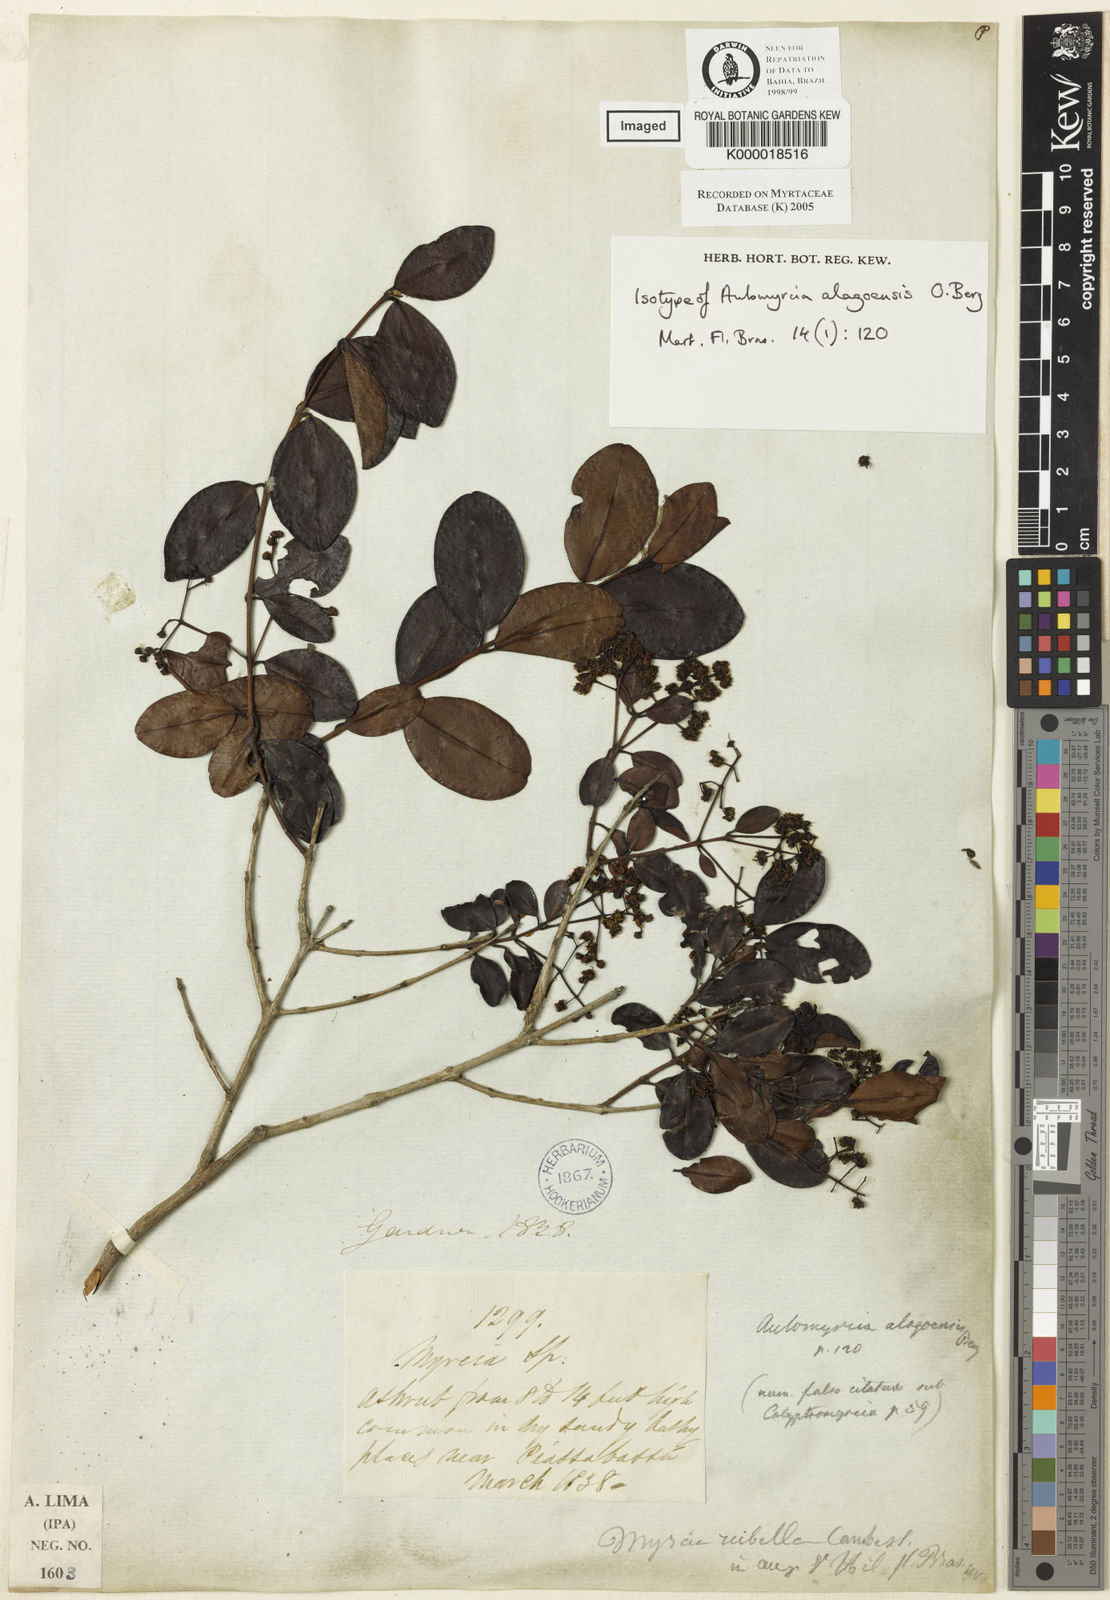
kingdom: Plantae
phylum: Tracheophyta
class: Magnoliopsida
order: Myrtales
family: Myrtaceae
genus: Myrcia
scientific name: Myrcia splendens
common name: Surinam cherry
